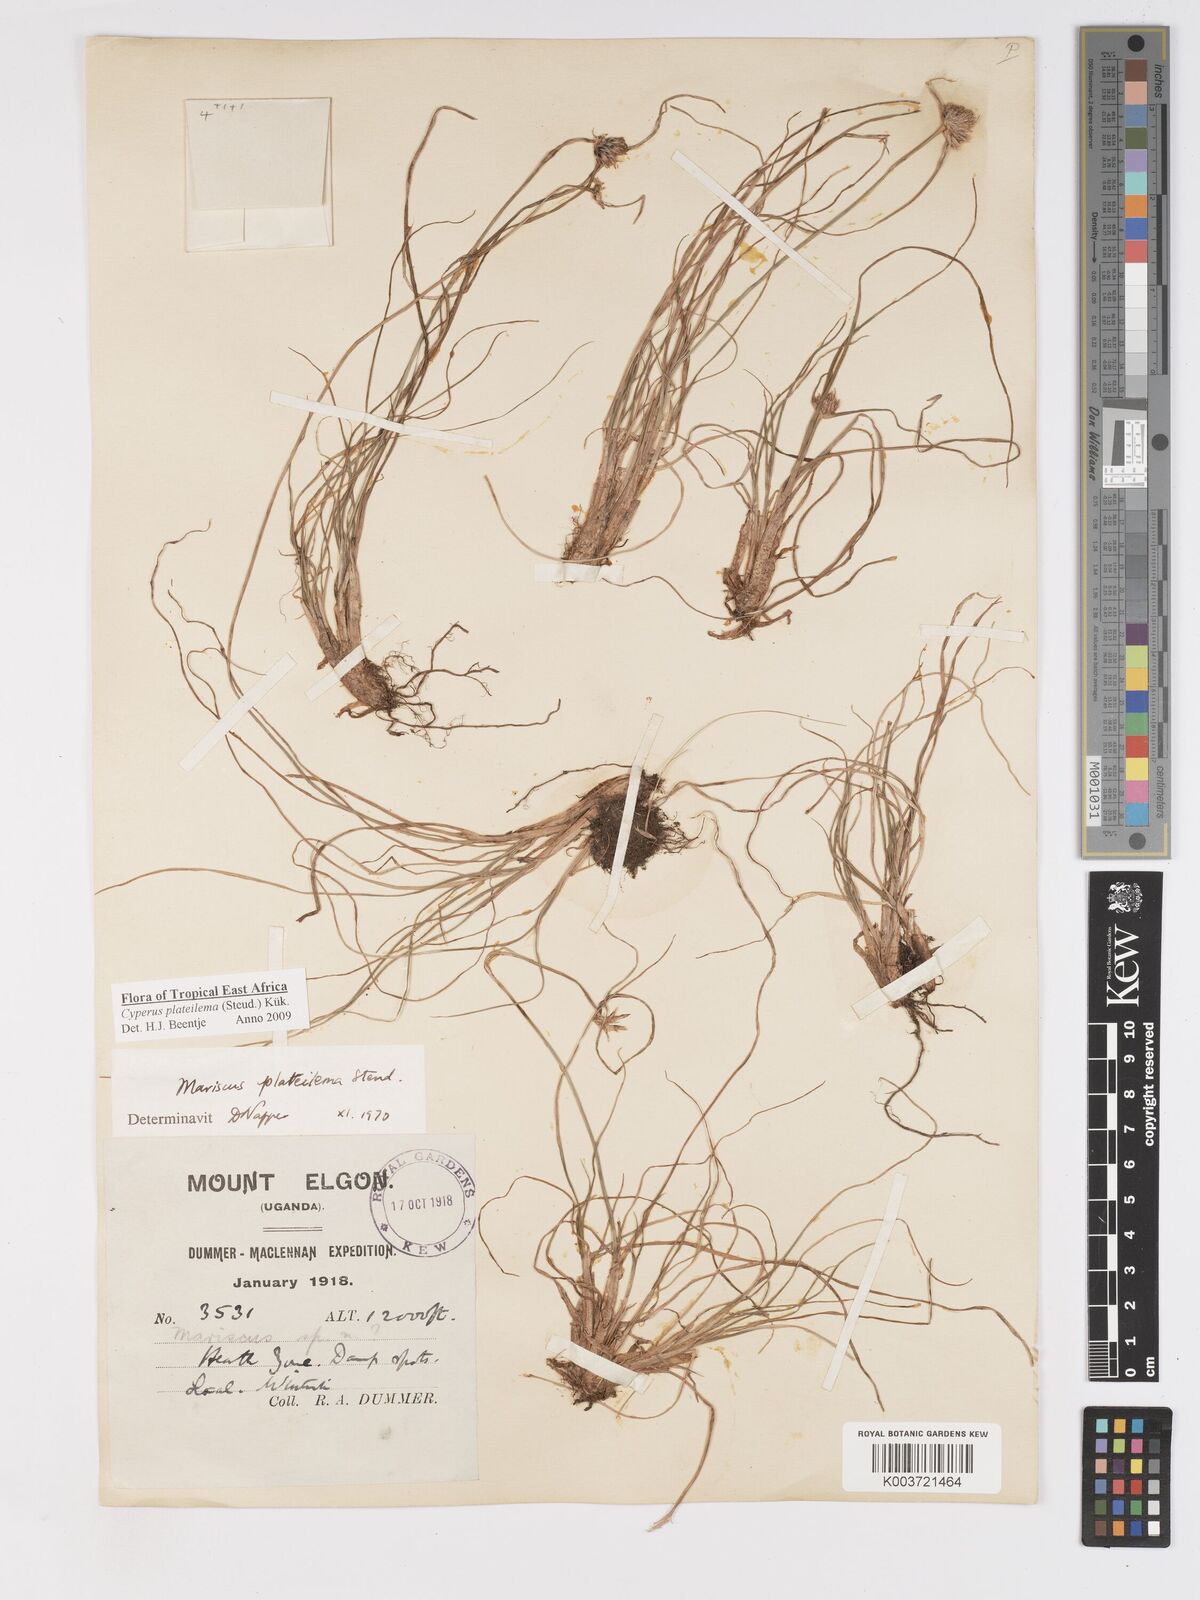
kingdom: Plantae
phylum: Tracheophyta
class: Liliopsida
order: Poales
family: Cyperaceae
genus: Cyperus
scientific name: Cyperus plateilema
